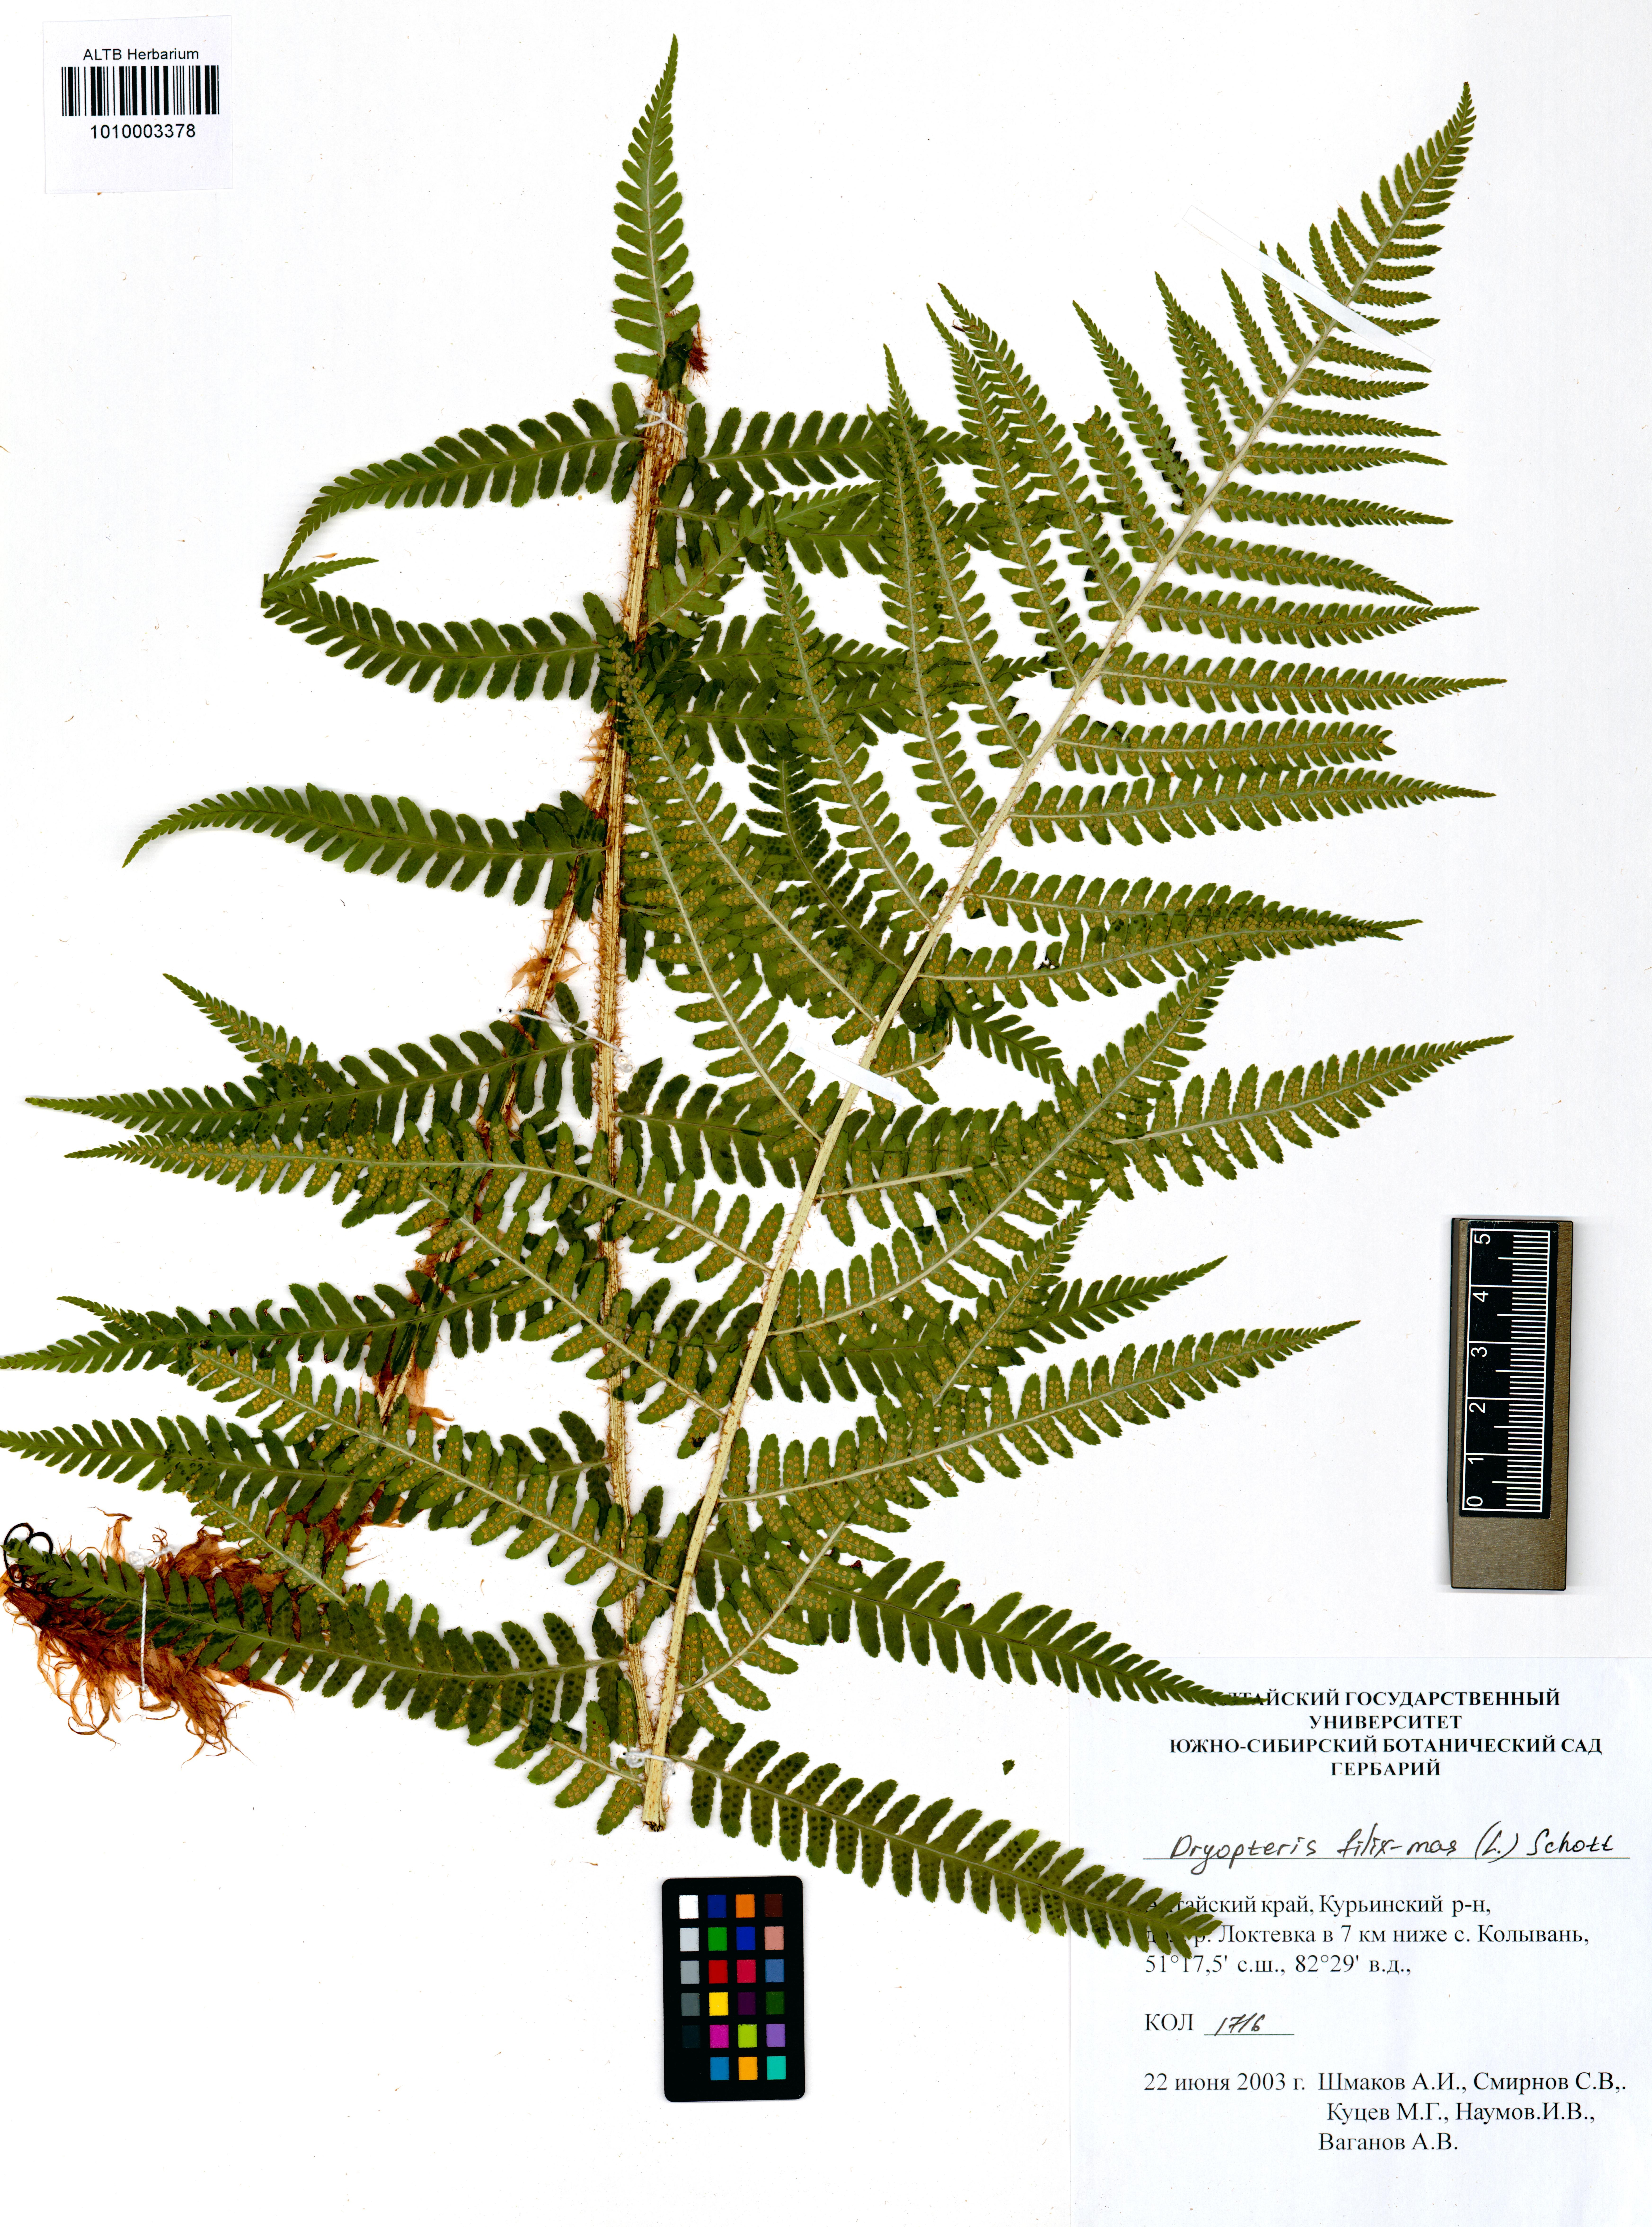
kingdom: Plantae
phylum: Tracheophyta
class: Polypodiopsida
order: Polypodiales
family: Dryopteridaceae
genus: Dryopteris
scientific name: Dryopteris filix-mas
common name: Male fern
